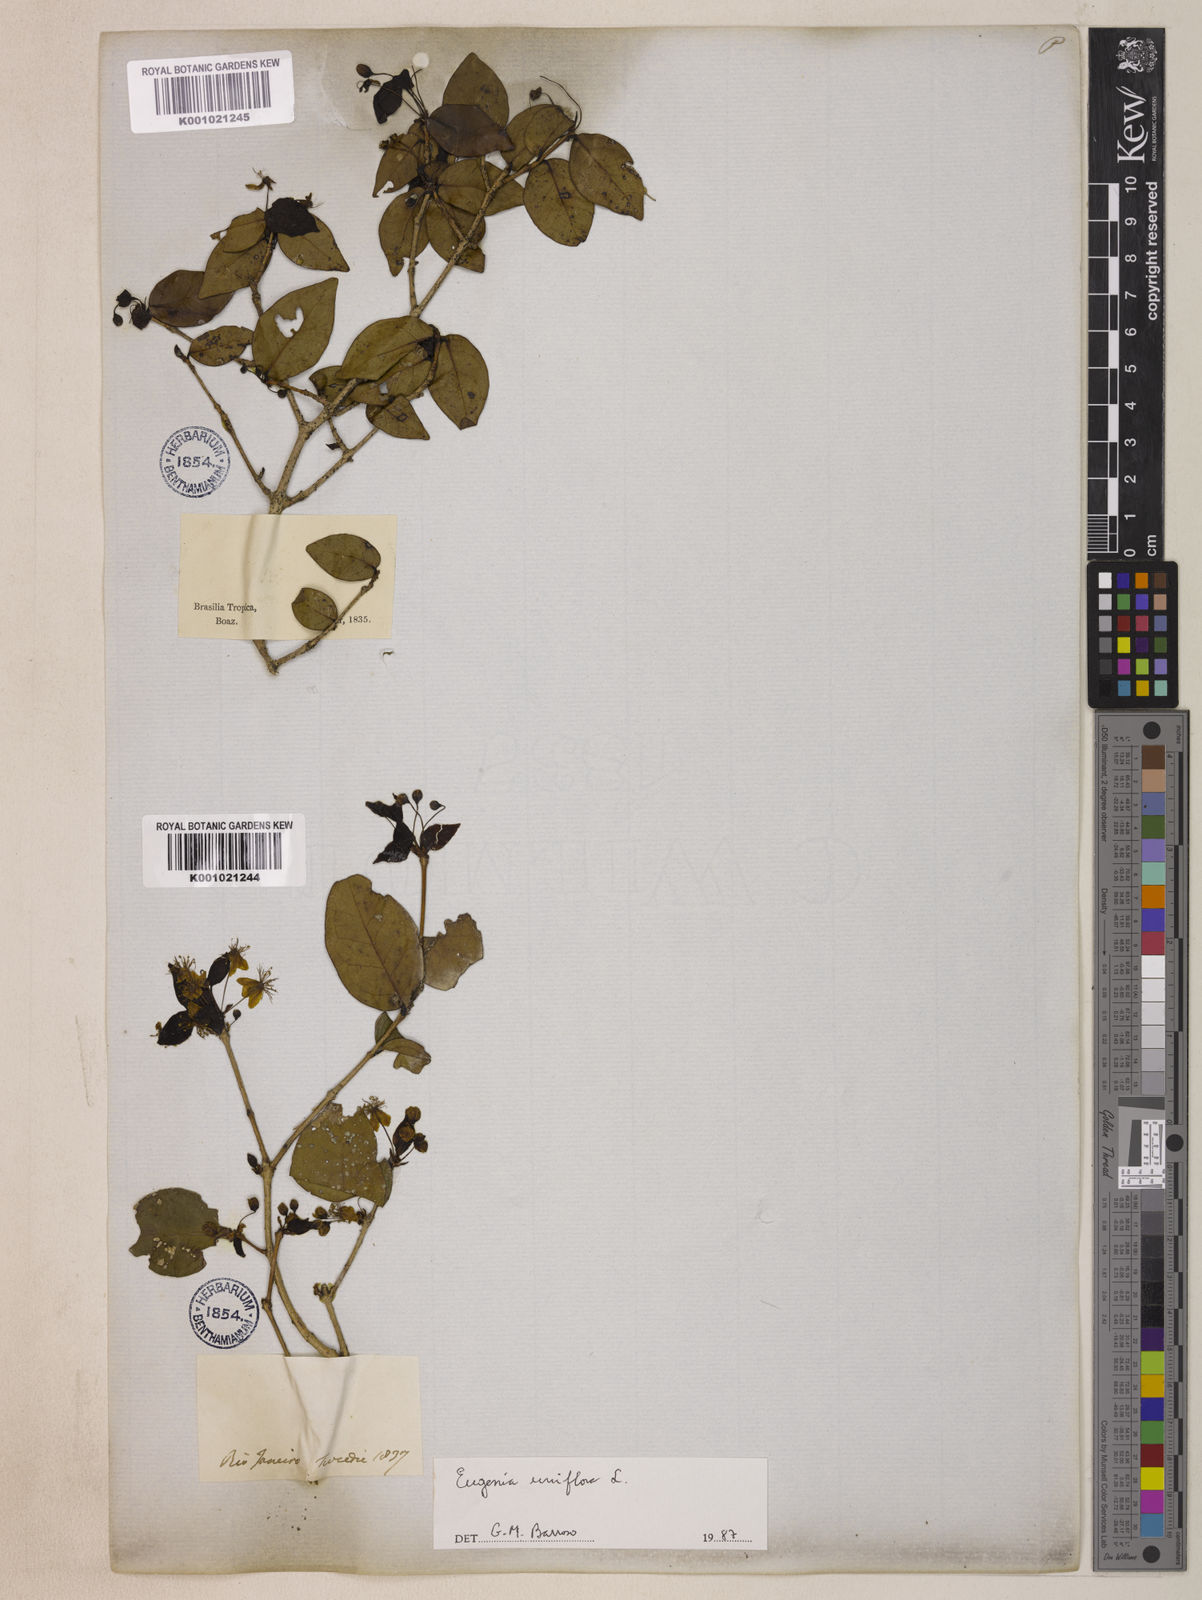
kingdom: Plantae
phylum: Tracheophyta
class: Magnoliopsida
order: Myrtales
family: Myrtaceae
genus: Eugenia
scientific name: Eugenia uniflora
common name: Surinam cherry
